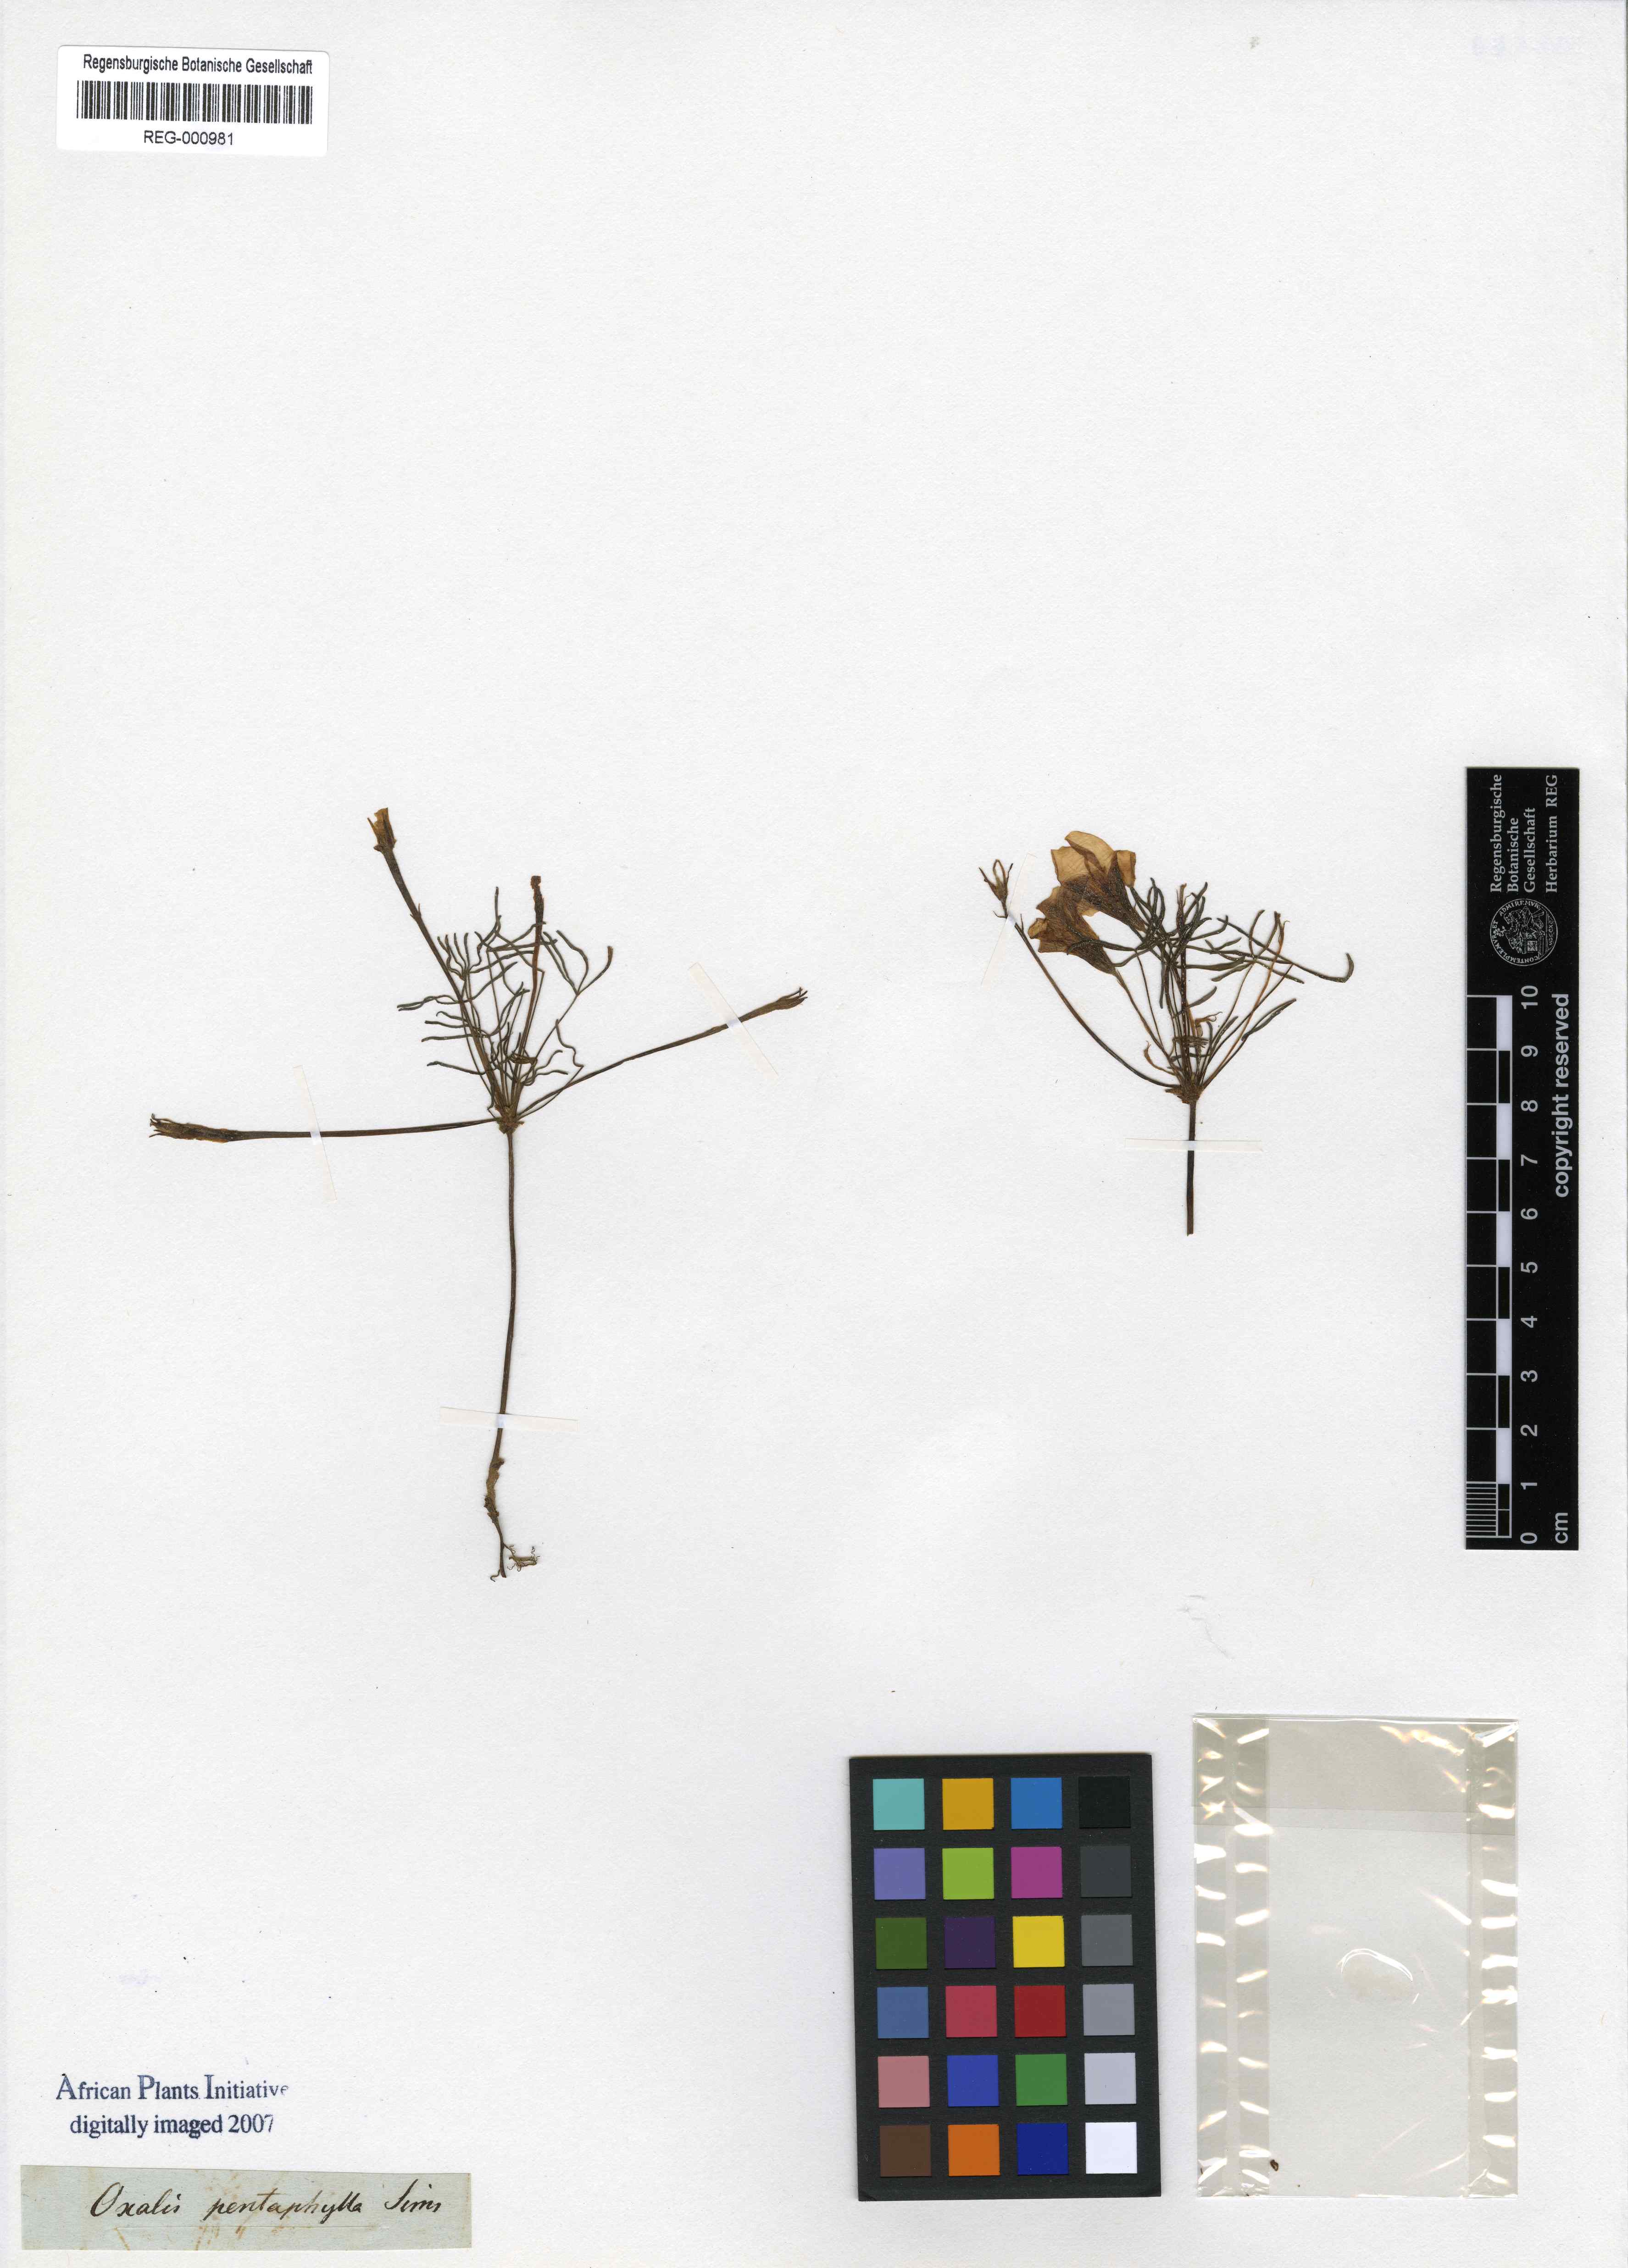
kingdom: Plantae
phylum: Tracheophyta
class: Magnoliopsida
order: Oxalidales
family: Oxalidaceae
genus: Oxalis
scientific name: Oxalis polyphylla
